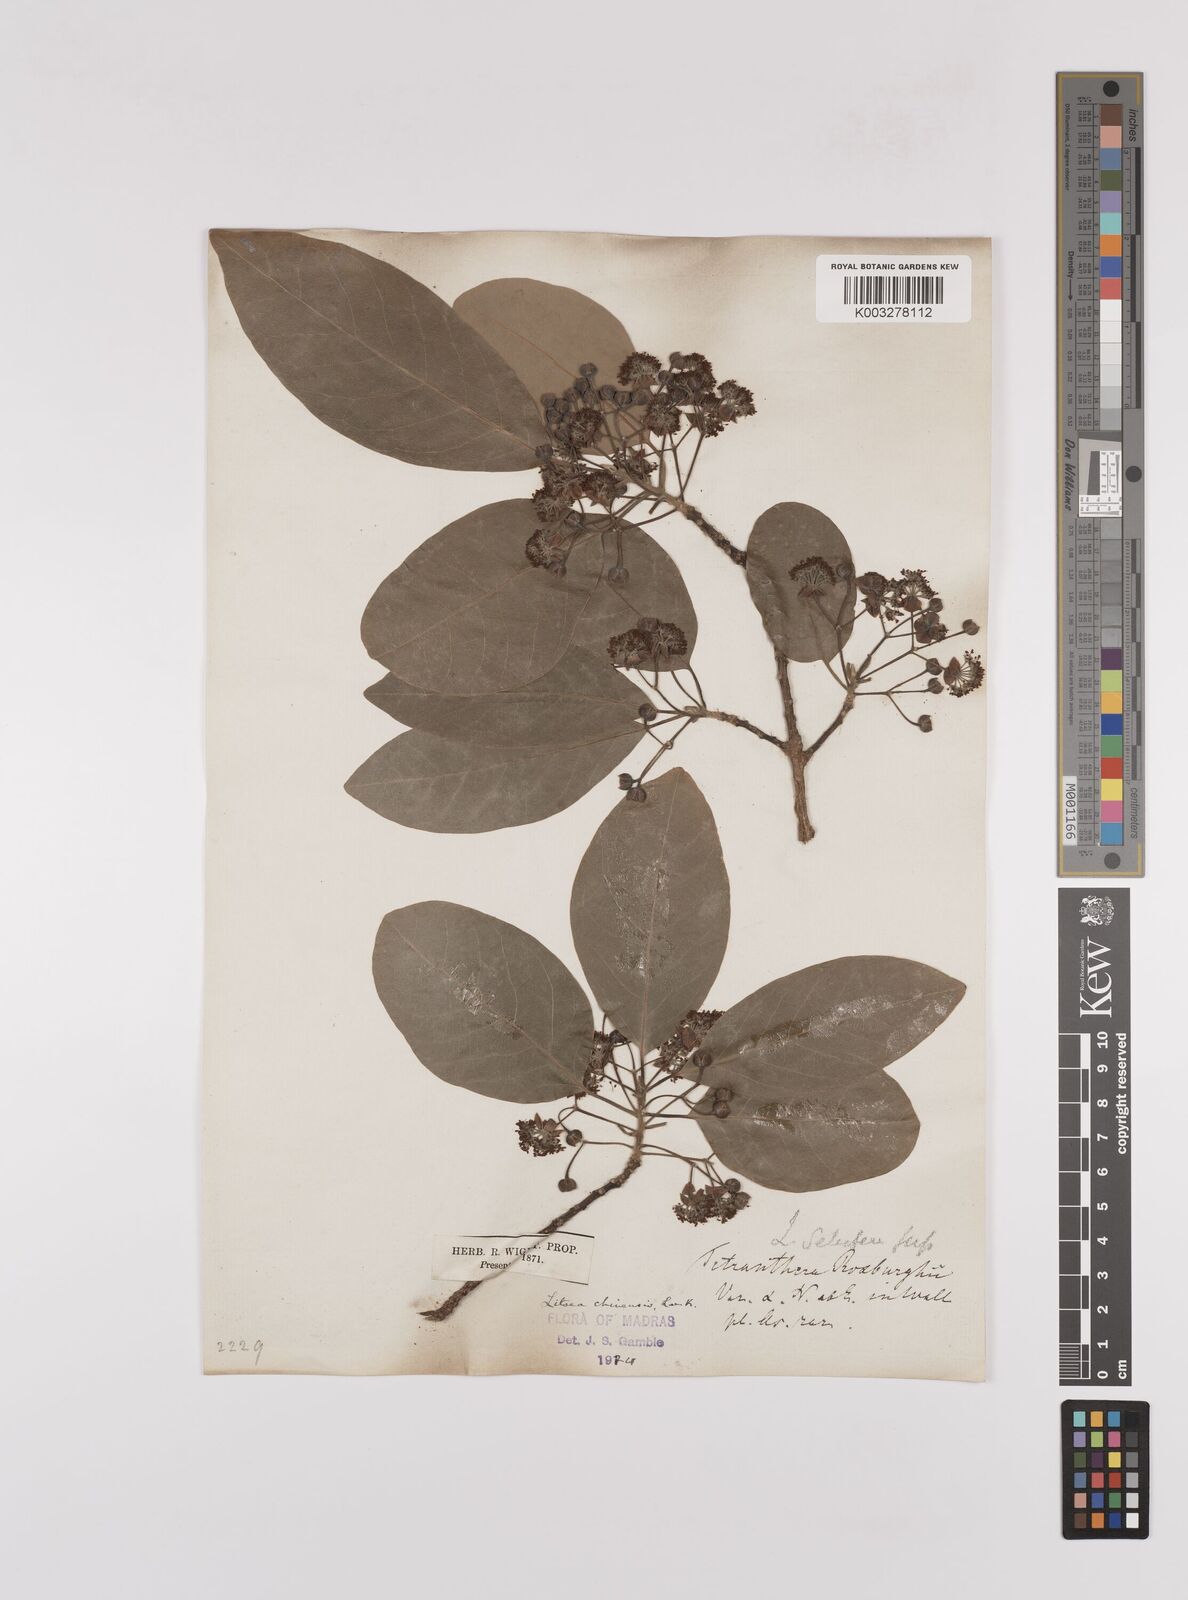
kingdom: Plantae
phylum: Tracheophyta
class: Magnoliopsida
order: Laurales
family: Lauraceae
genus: Litsea
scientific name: Litsea
